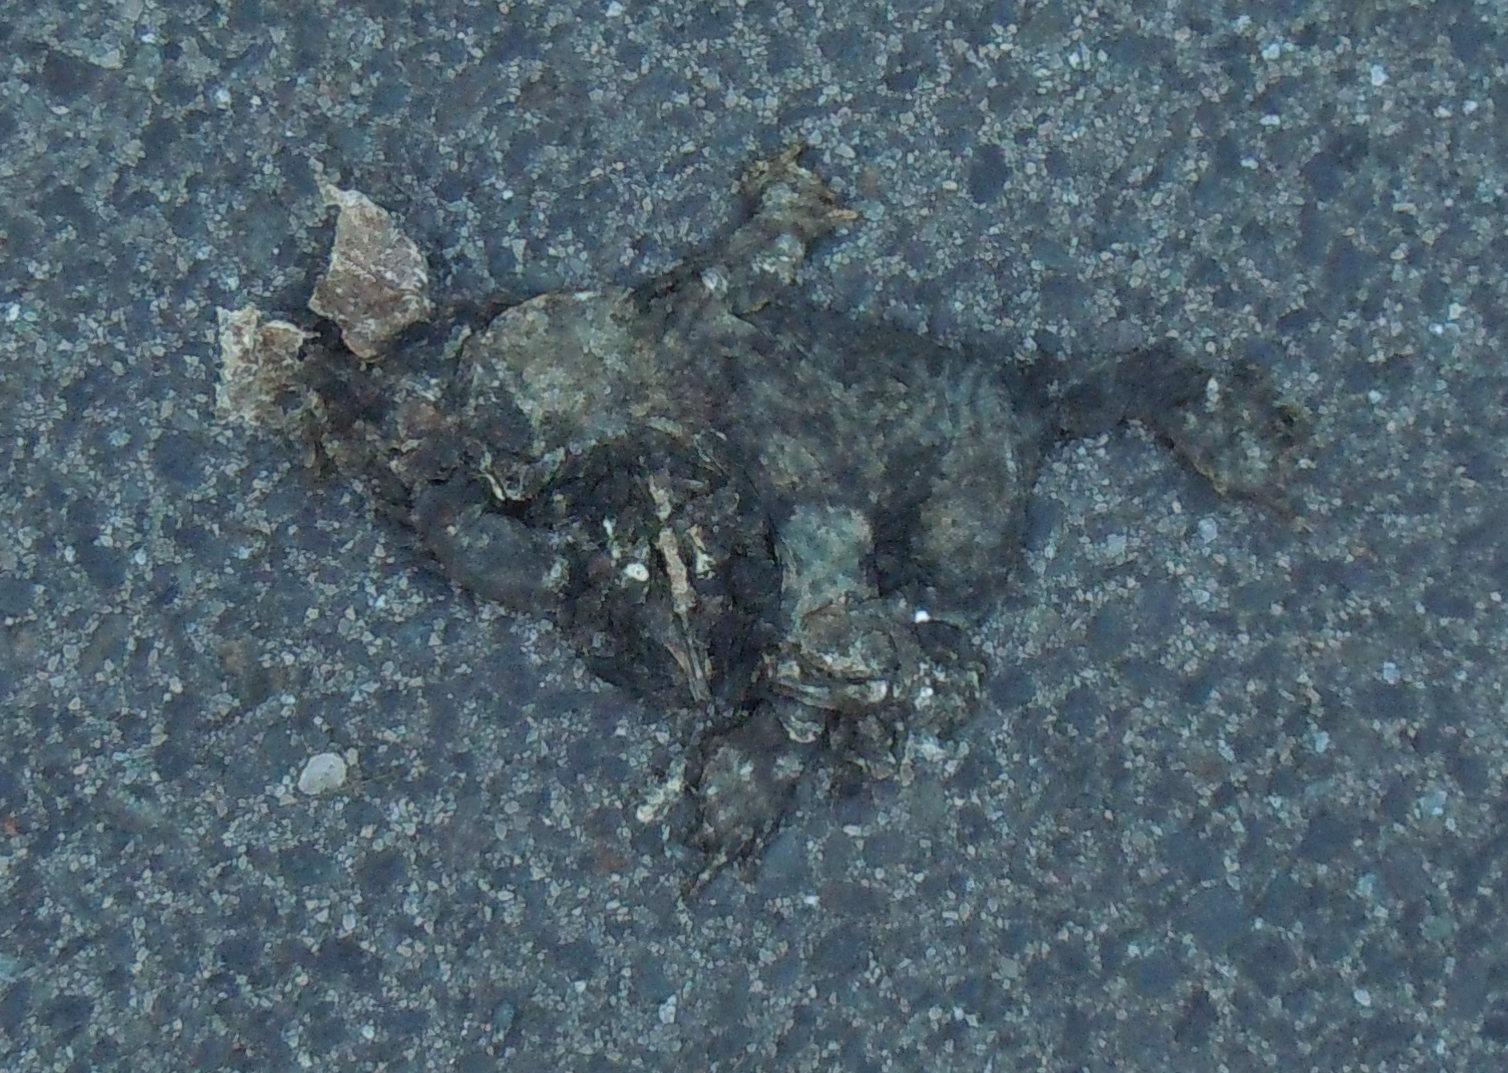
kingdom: Animalia
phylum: Chordata
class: Amphibia
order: Anura
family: Bufonidae
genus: Bufo
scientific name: Bufo bufo
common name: Common toad
